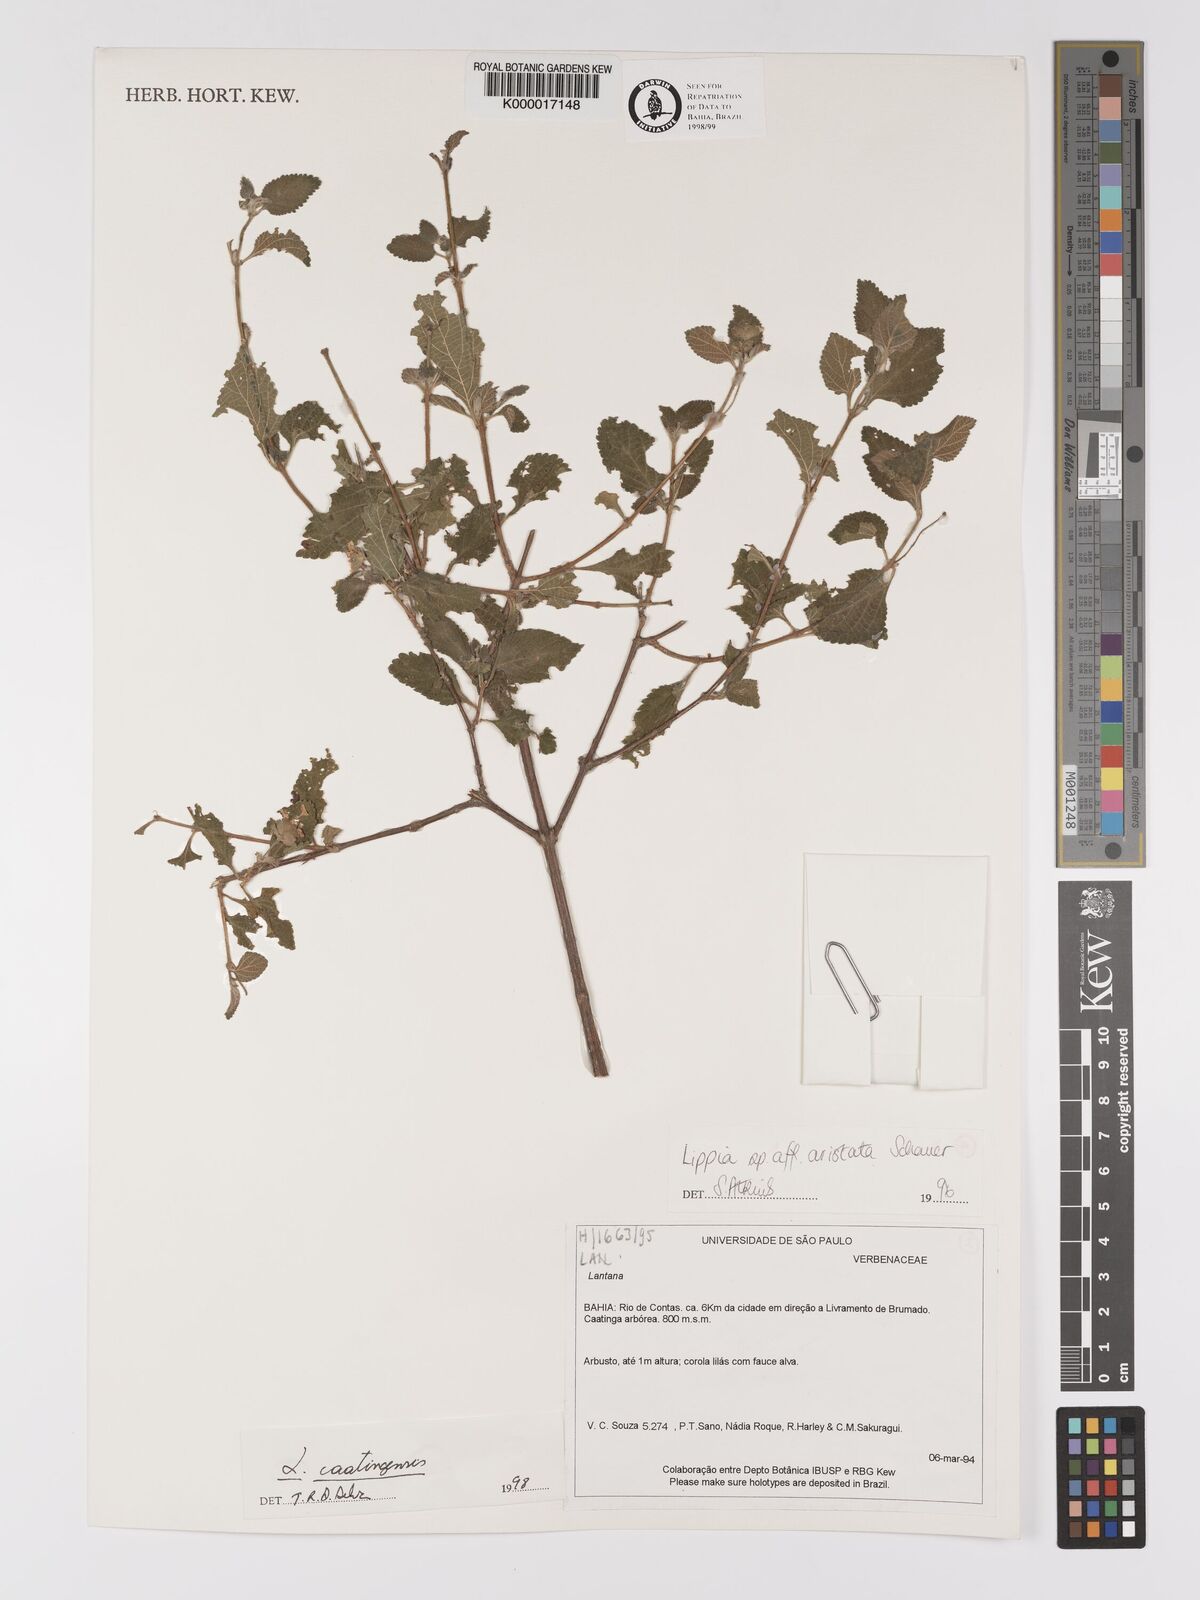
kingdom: Plantae
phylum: Tracheophyta
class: Magnoliopsida
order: Lamiales
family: Verbenaceae
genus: Lantana
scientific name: Lantana caatingensis
